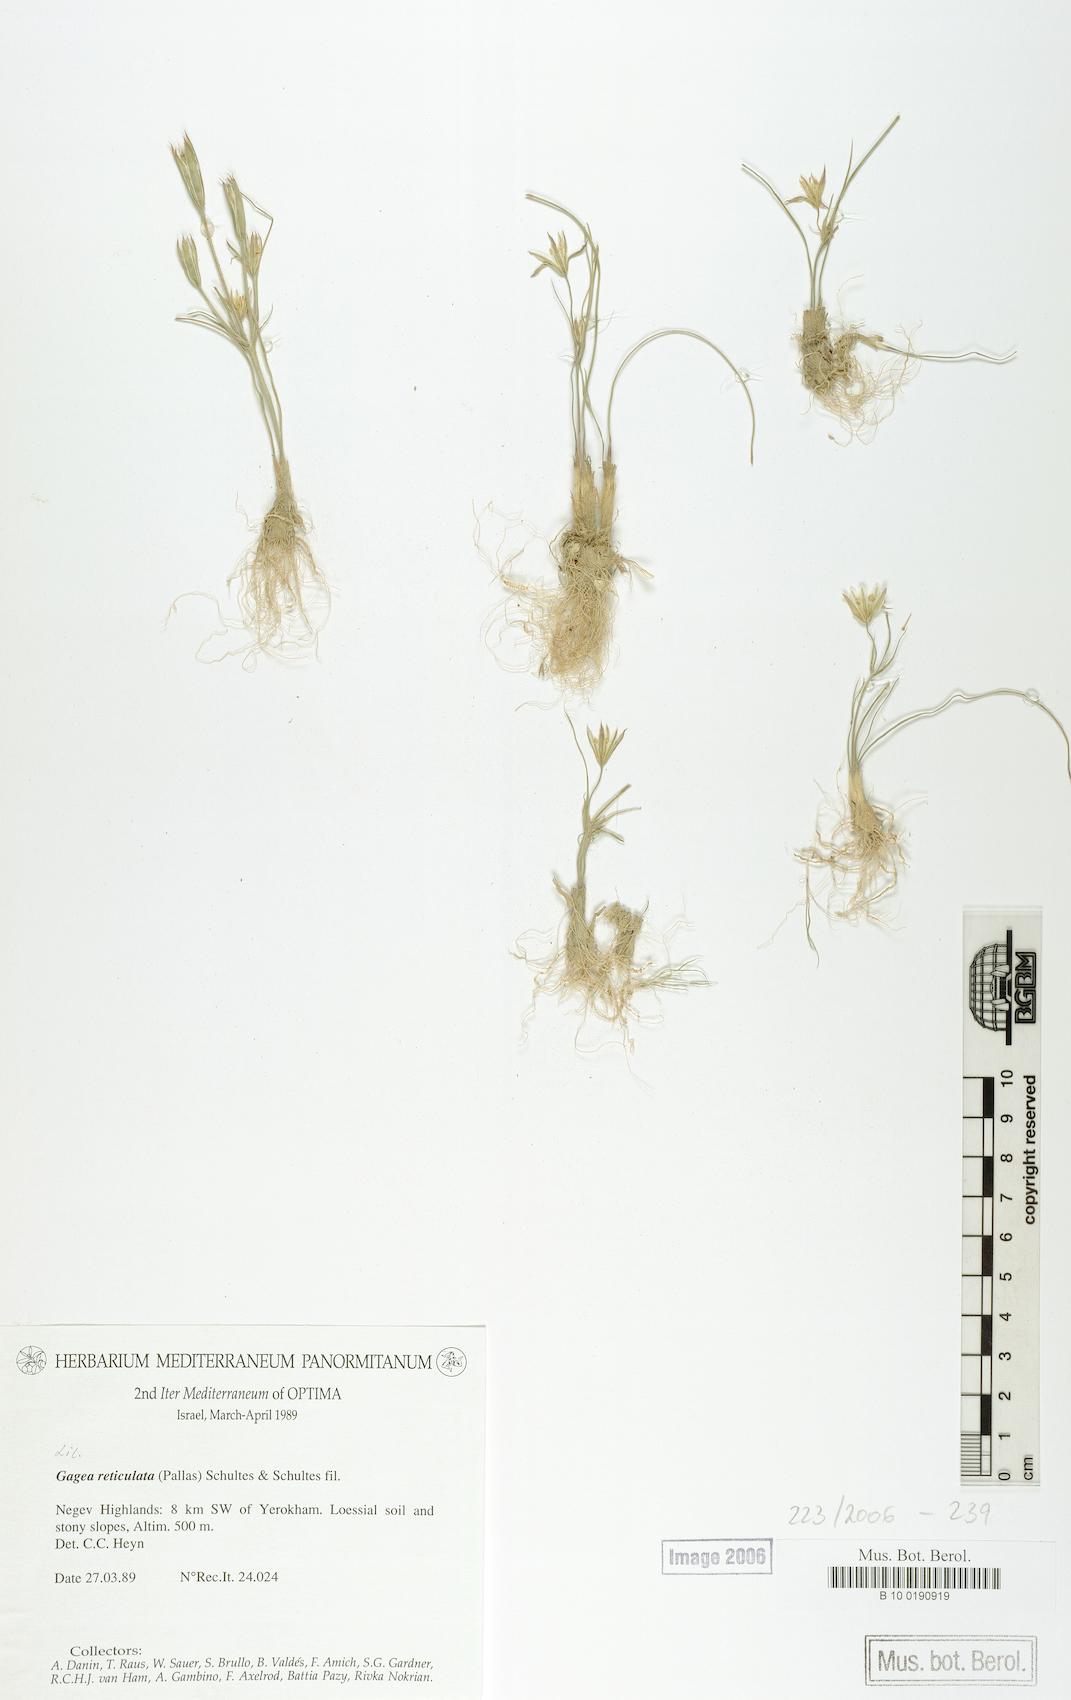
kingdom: Plantae
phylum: Tracheophyta
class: Liliopsida
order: Liliales
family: Liliaceae
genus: Gagea
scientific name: Gagea reticulata
